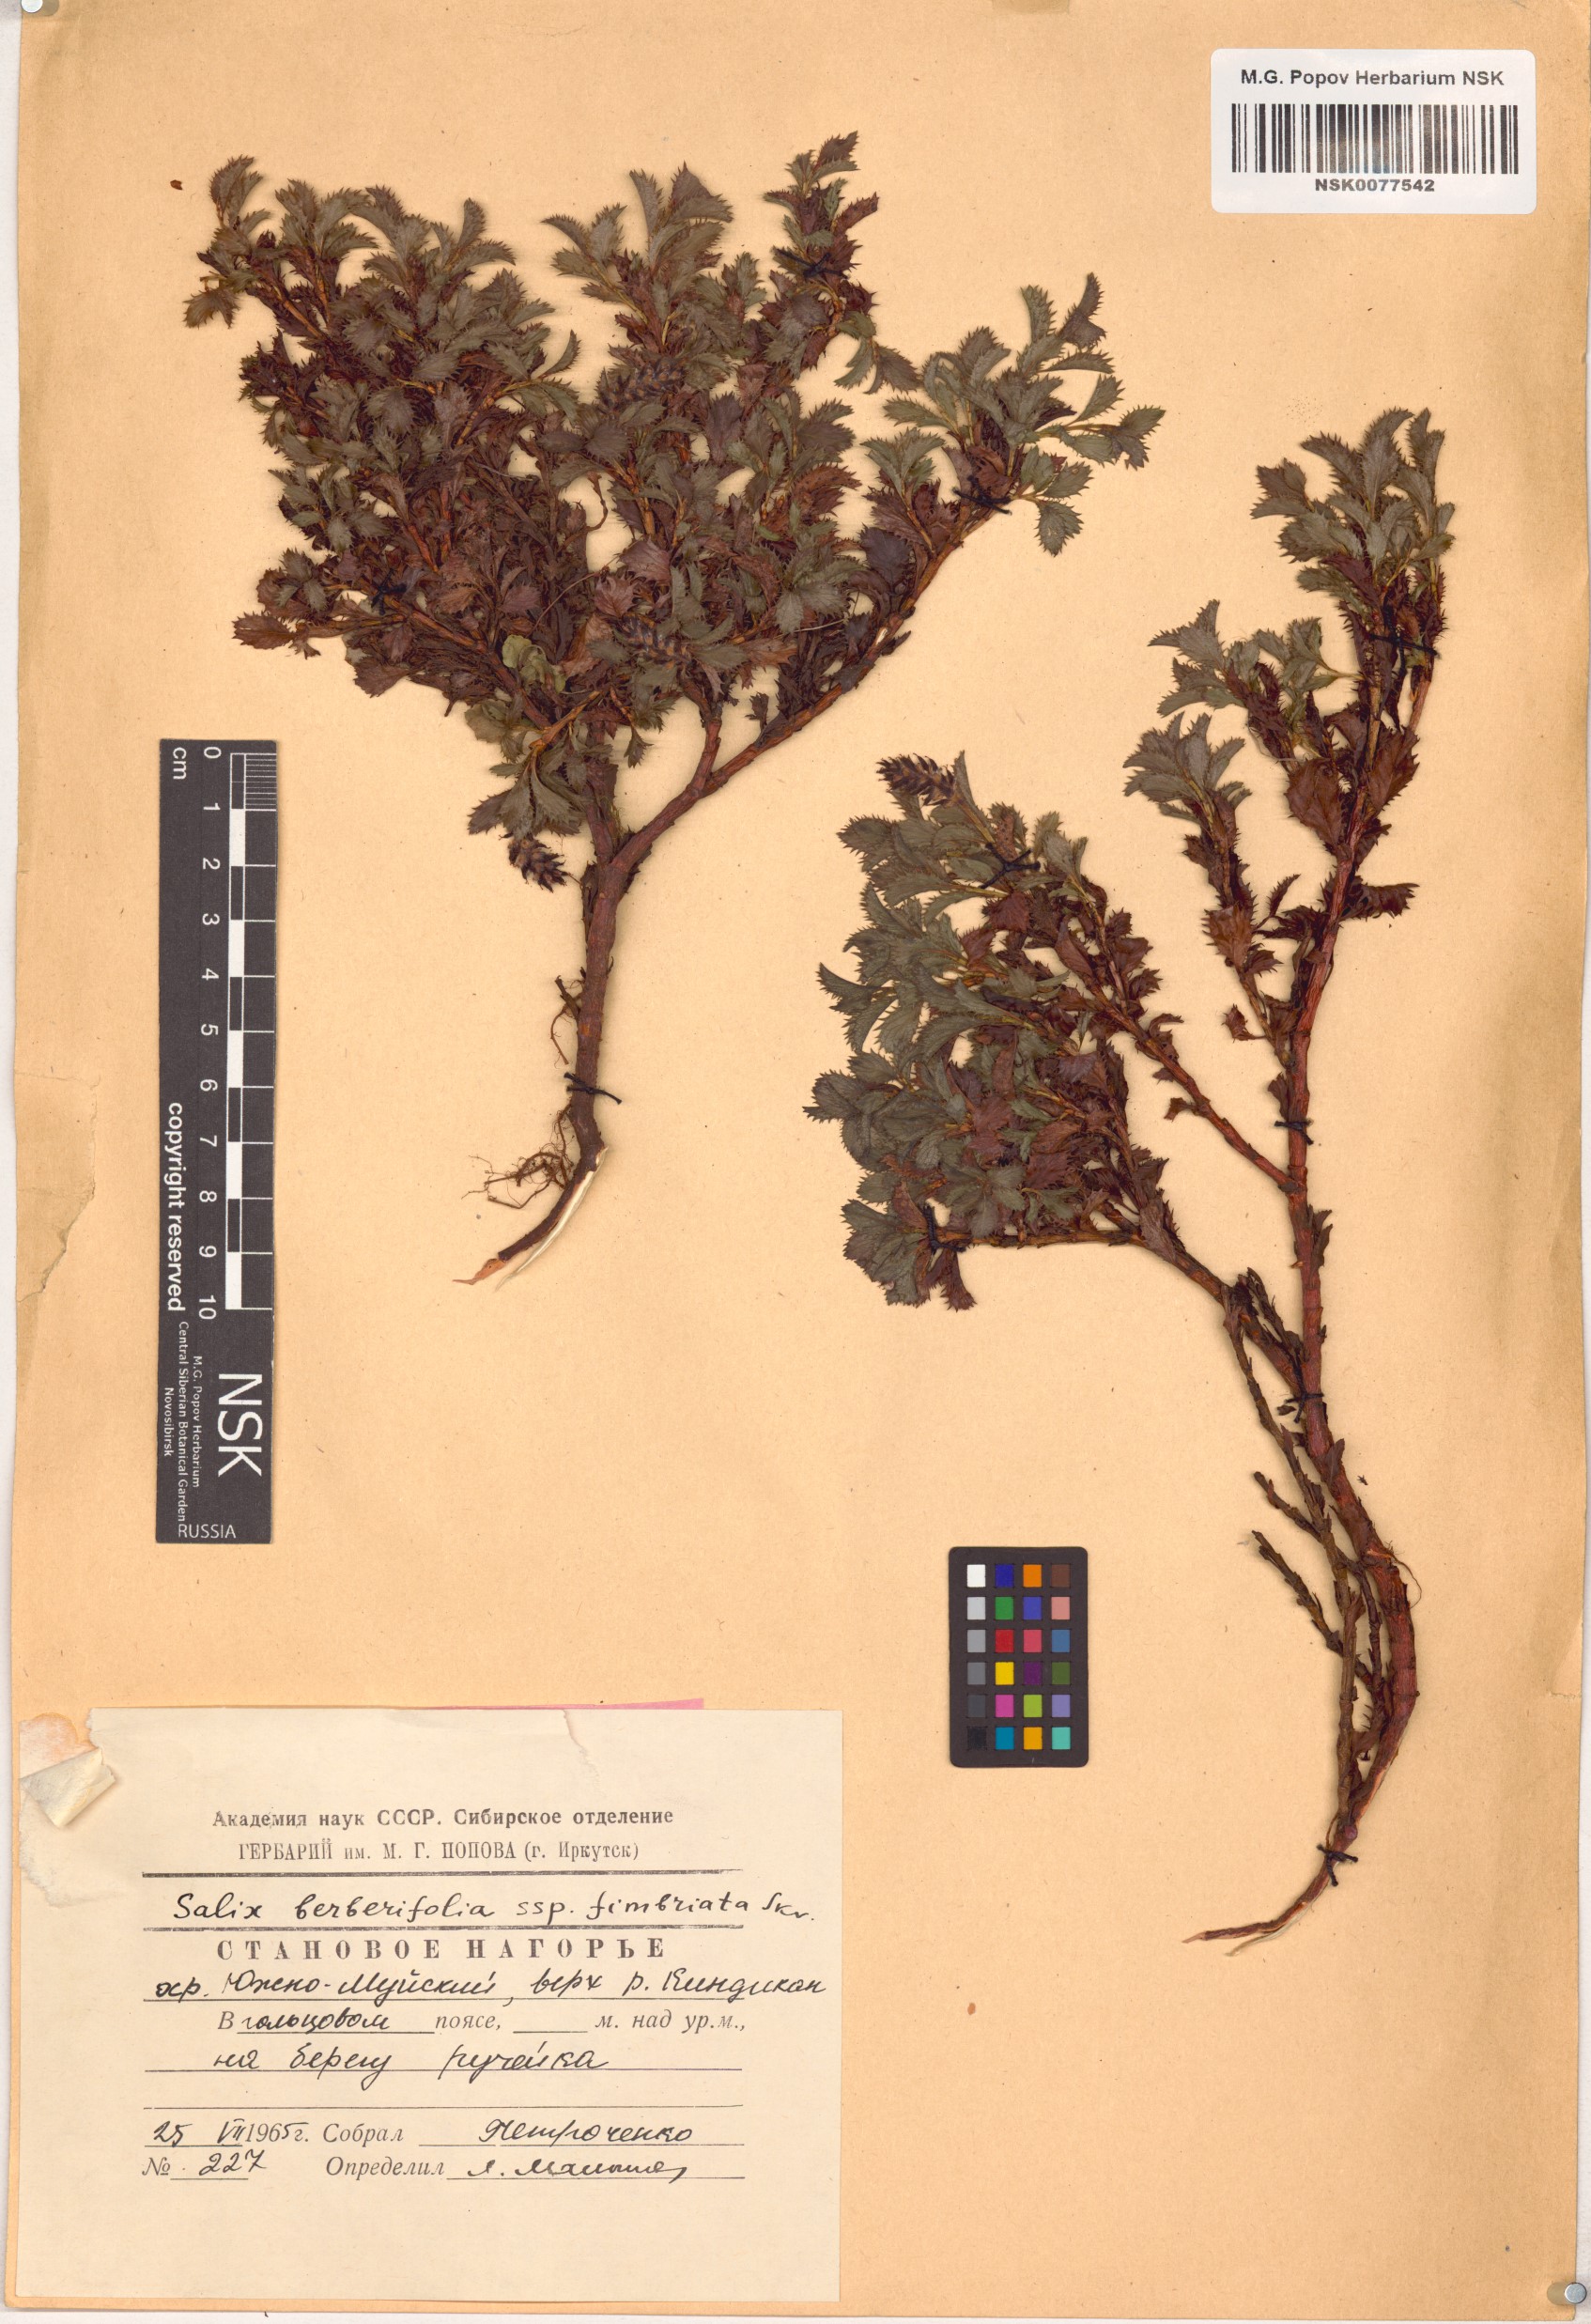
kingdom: Plantae
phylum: Tracheophyta
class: Magnoliopsida
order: Malpighiales
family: Salicaceae
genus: Salix
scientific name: Salix berberifolia
